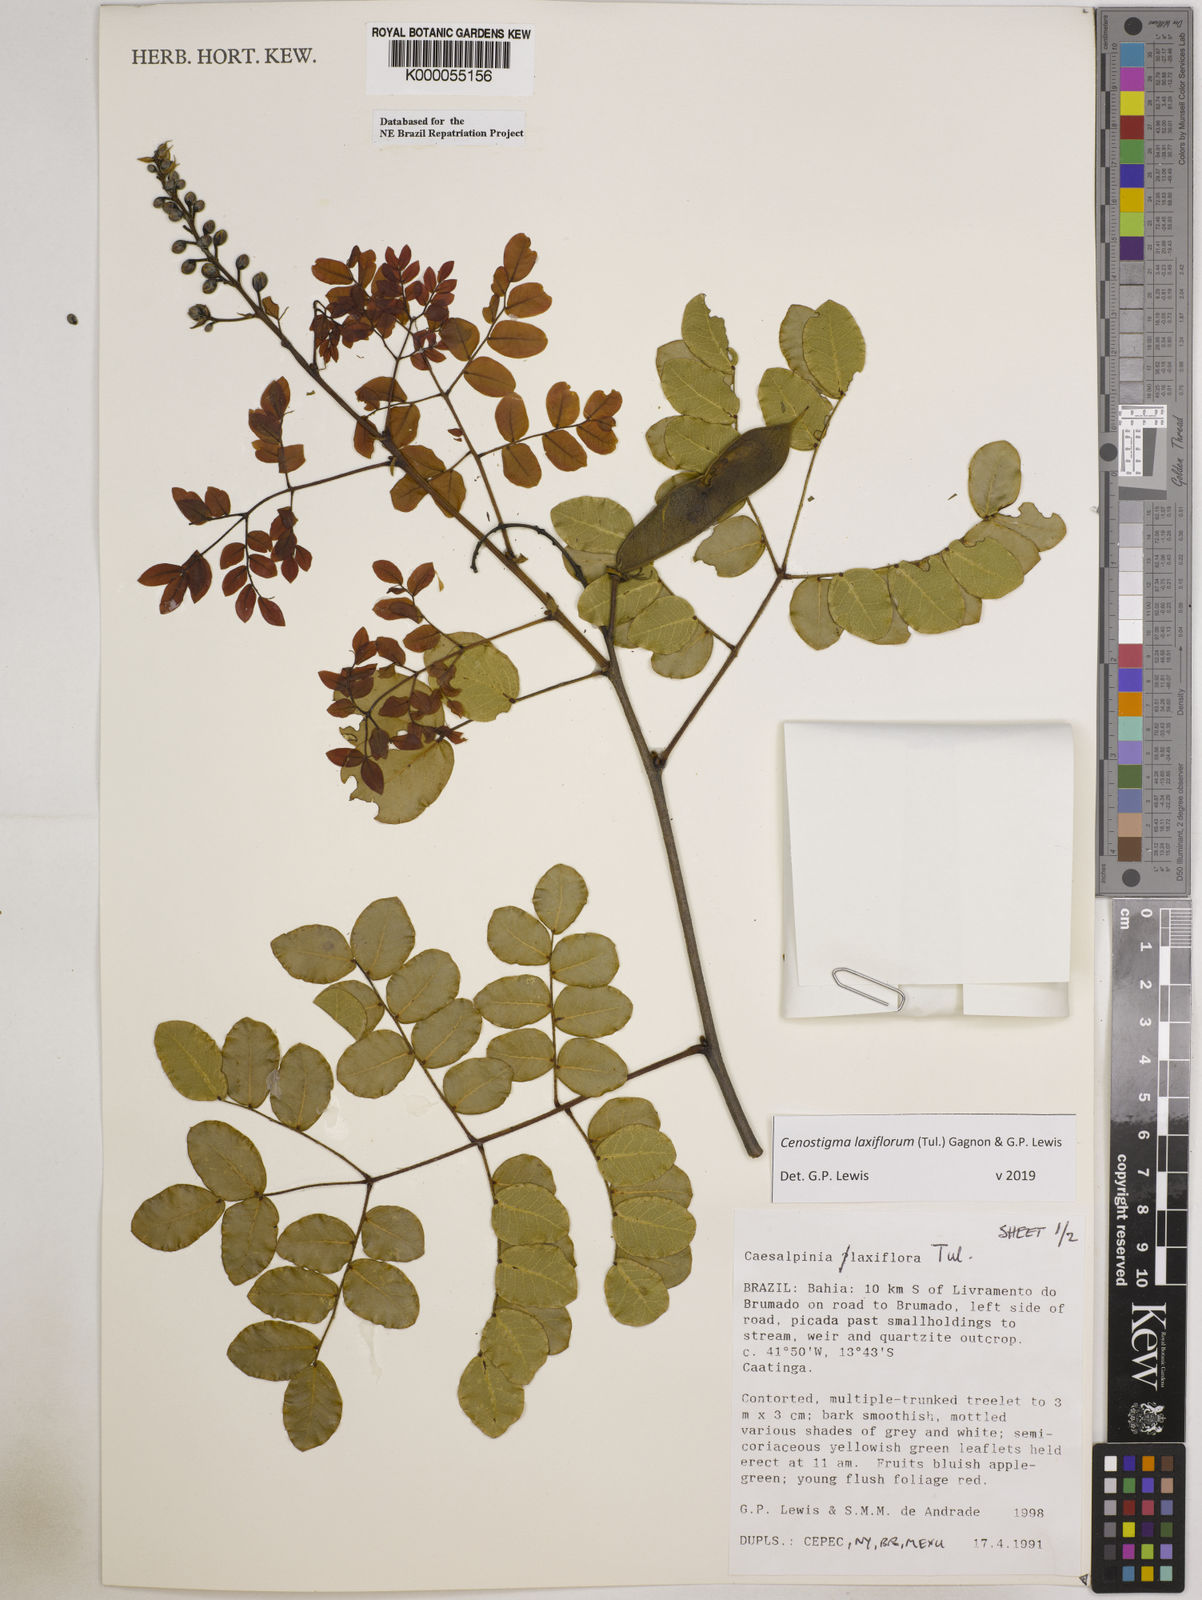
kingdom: Plantae
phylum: Tracheophyta
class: Magnoliopsida
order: Fabales
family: Fabaceae
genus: Cenostigma
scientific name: Cenostigma laxiflorum
